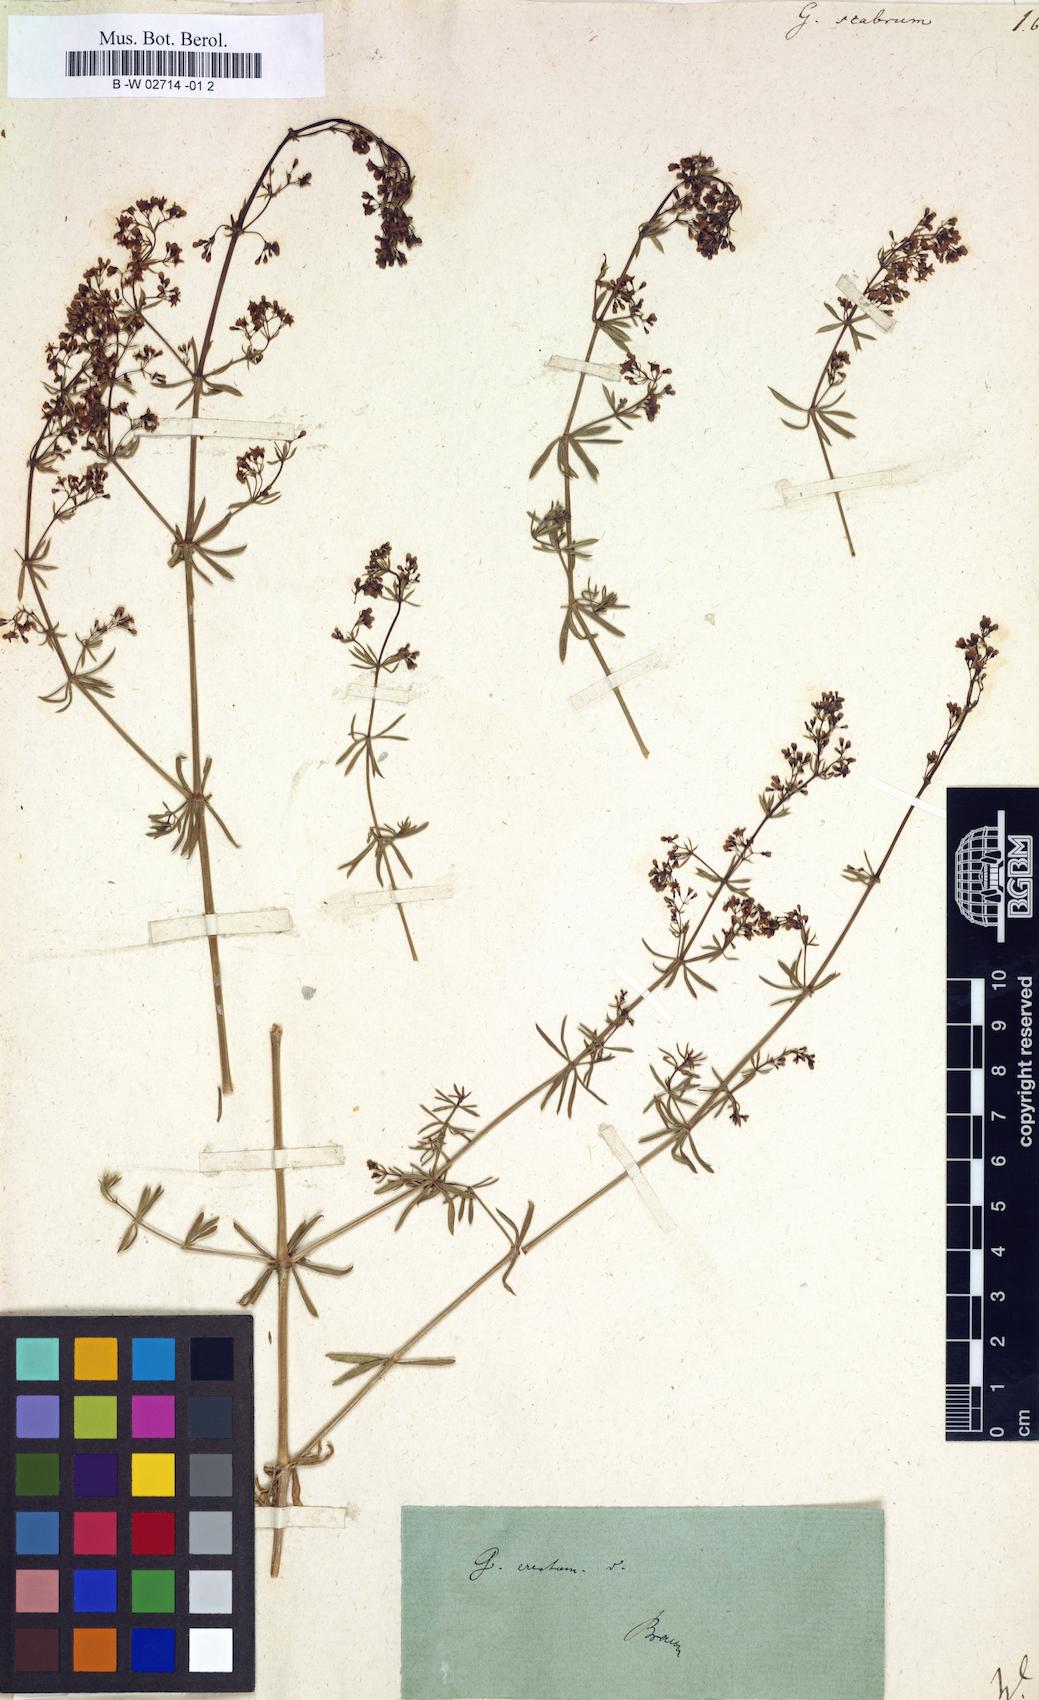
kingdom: Plantae
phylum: Tracheophyta
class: Magnoliopsida
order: Gentianales
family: Rubiaceae
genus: Galium
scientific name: Galium scabrum
